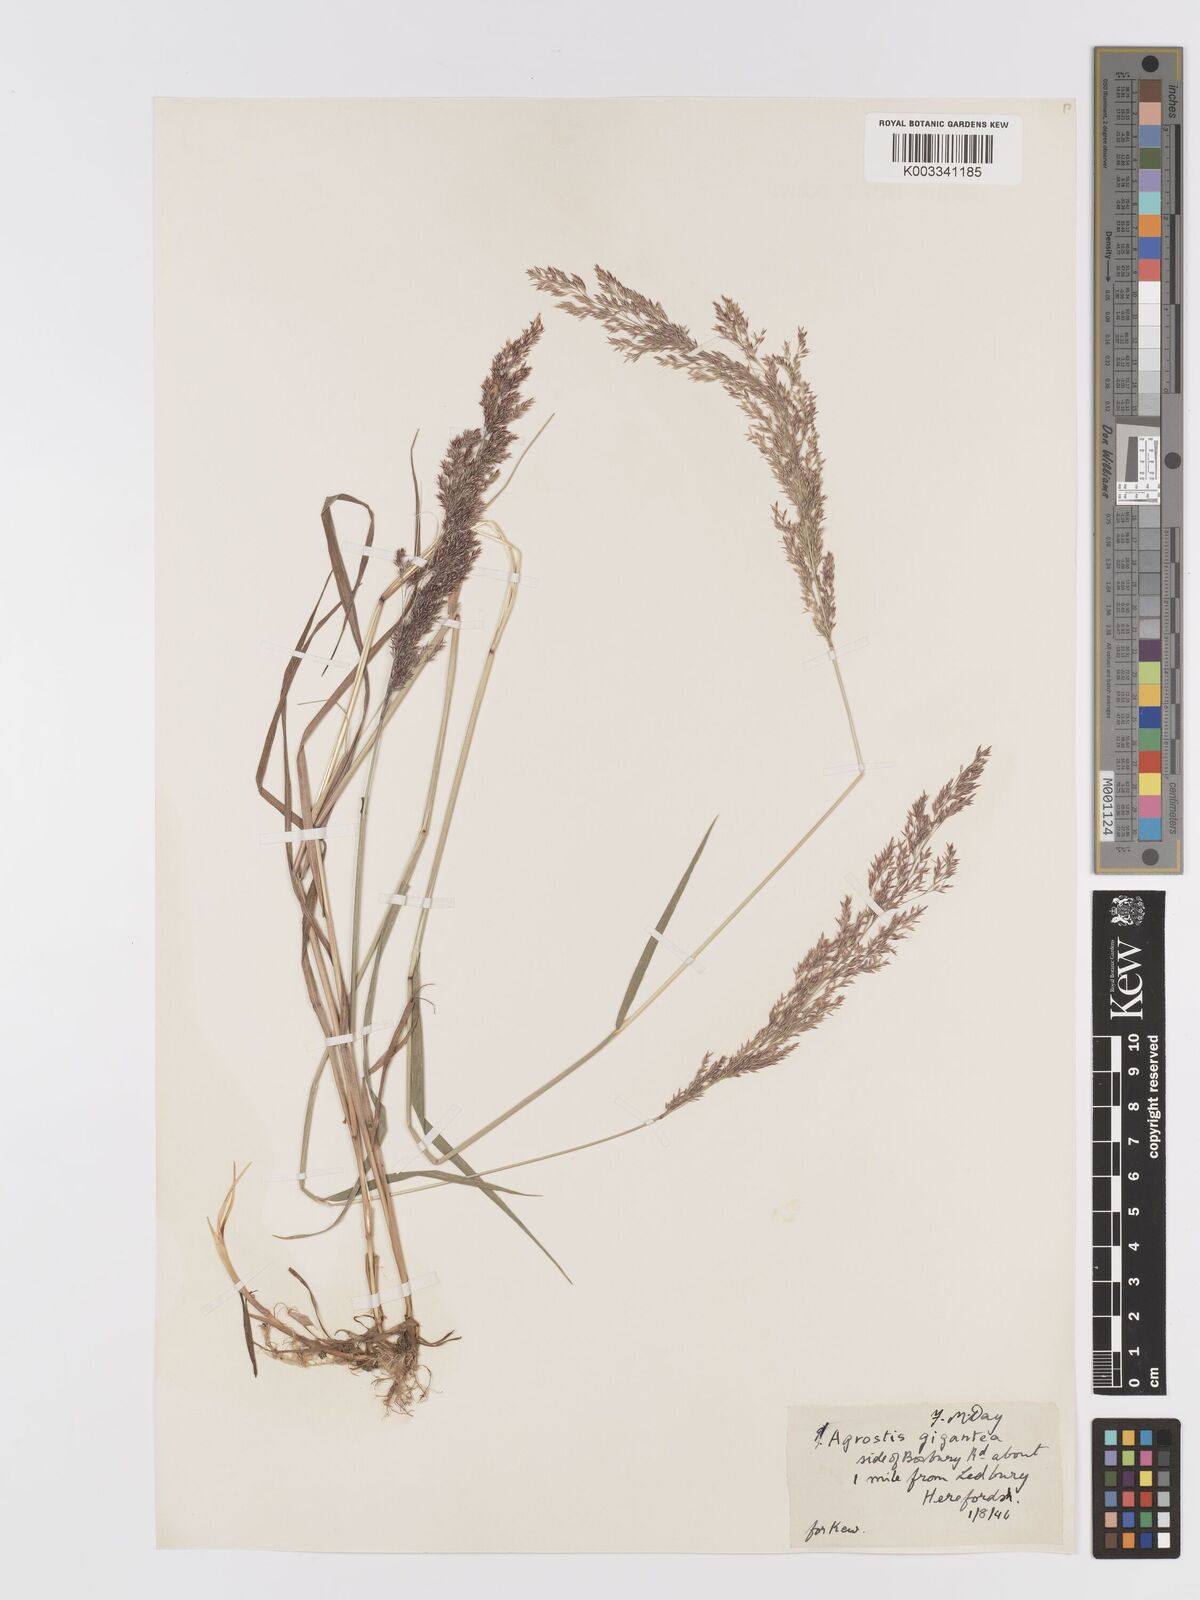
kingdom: Plantae
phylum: Tracheophyta
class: Liliopsida
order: Poales
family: Poaceae
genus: Agrostis
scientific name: Agrostis gigantea
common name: Black bent
